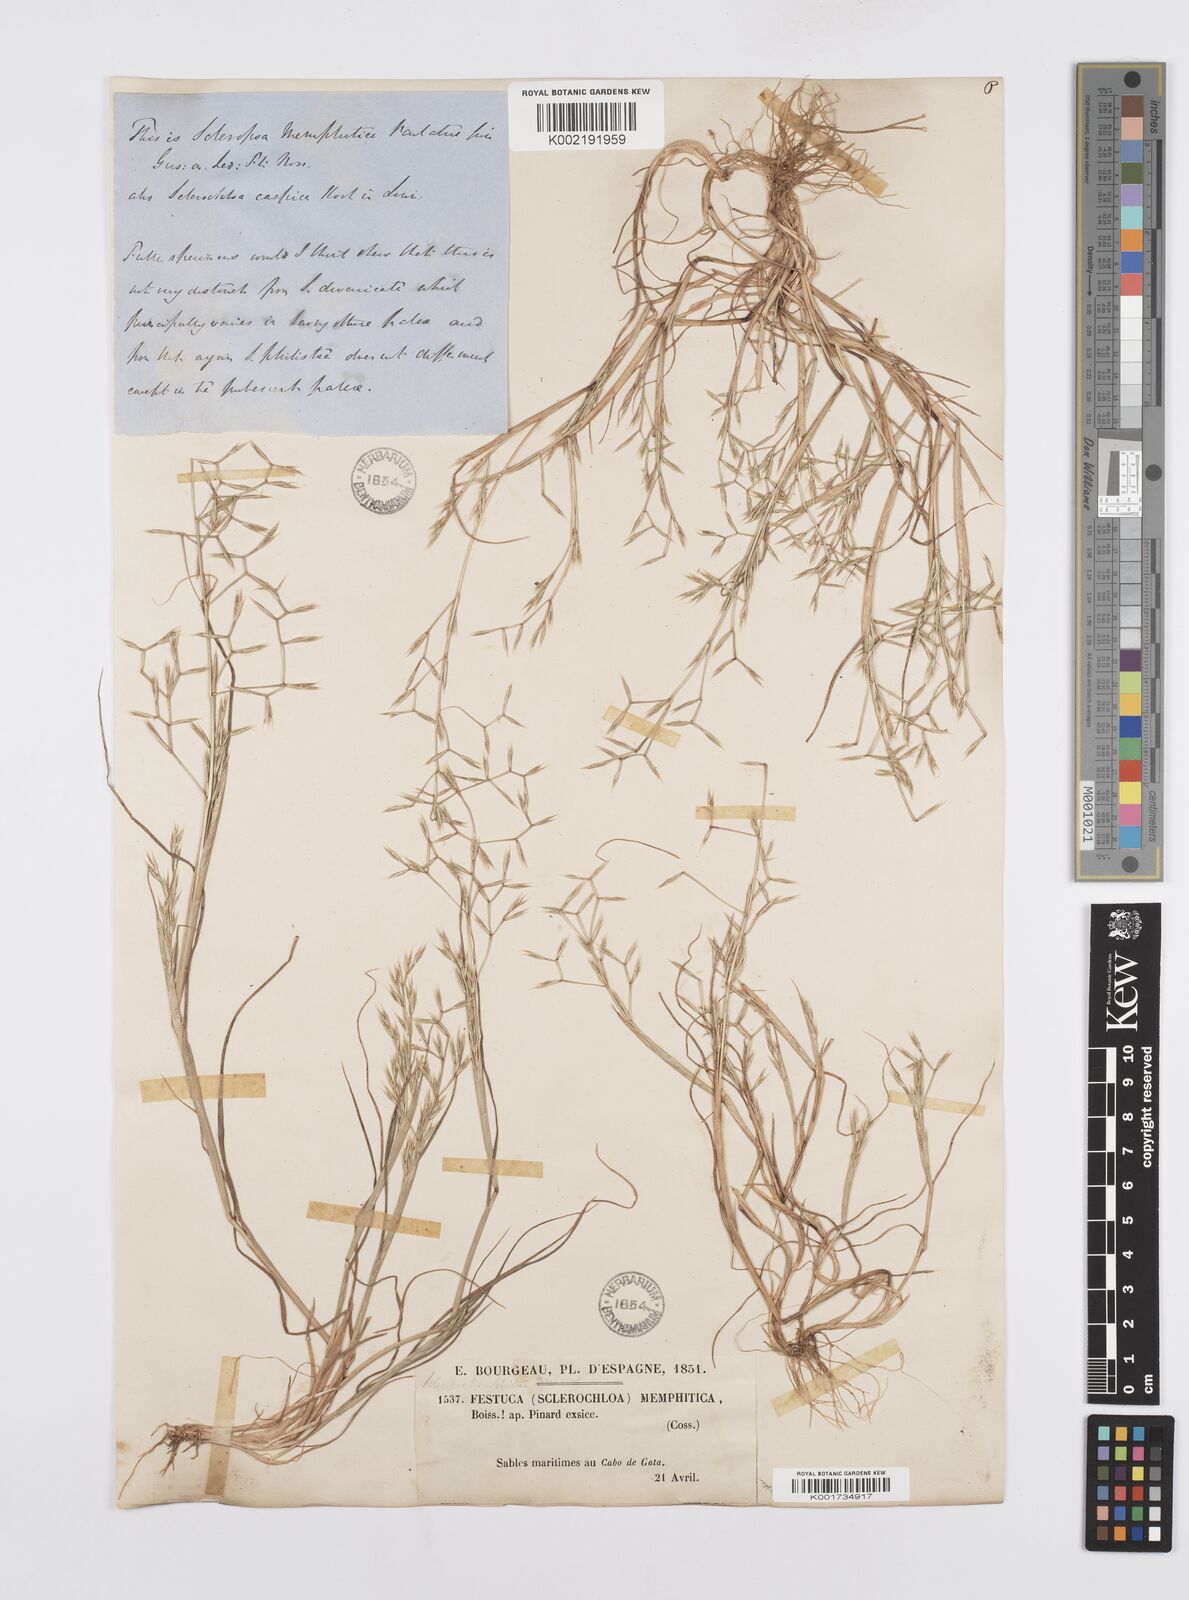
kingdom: Plantae
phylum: Tracheophyta
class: Liliopsida
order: Poales
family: Poaceae
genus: Cutandia
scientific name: Cutandia memphitica
